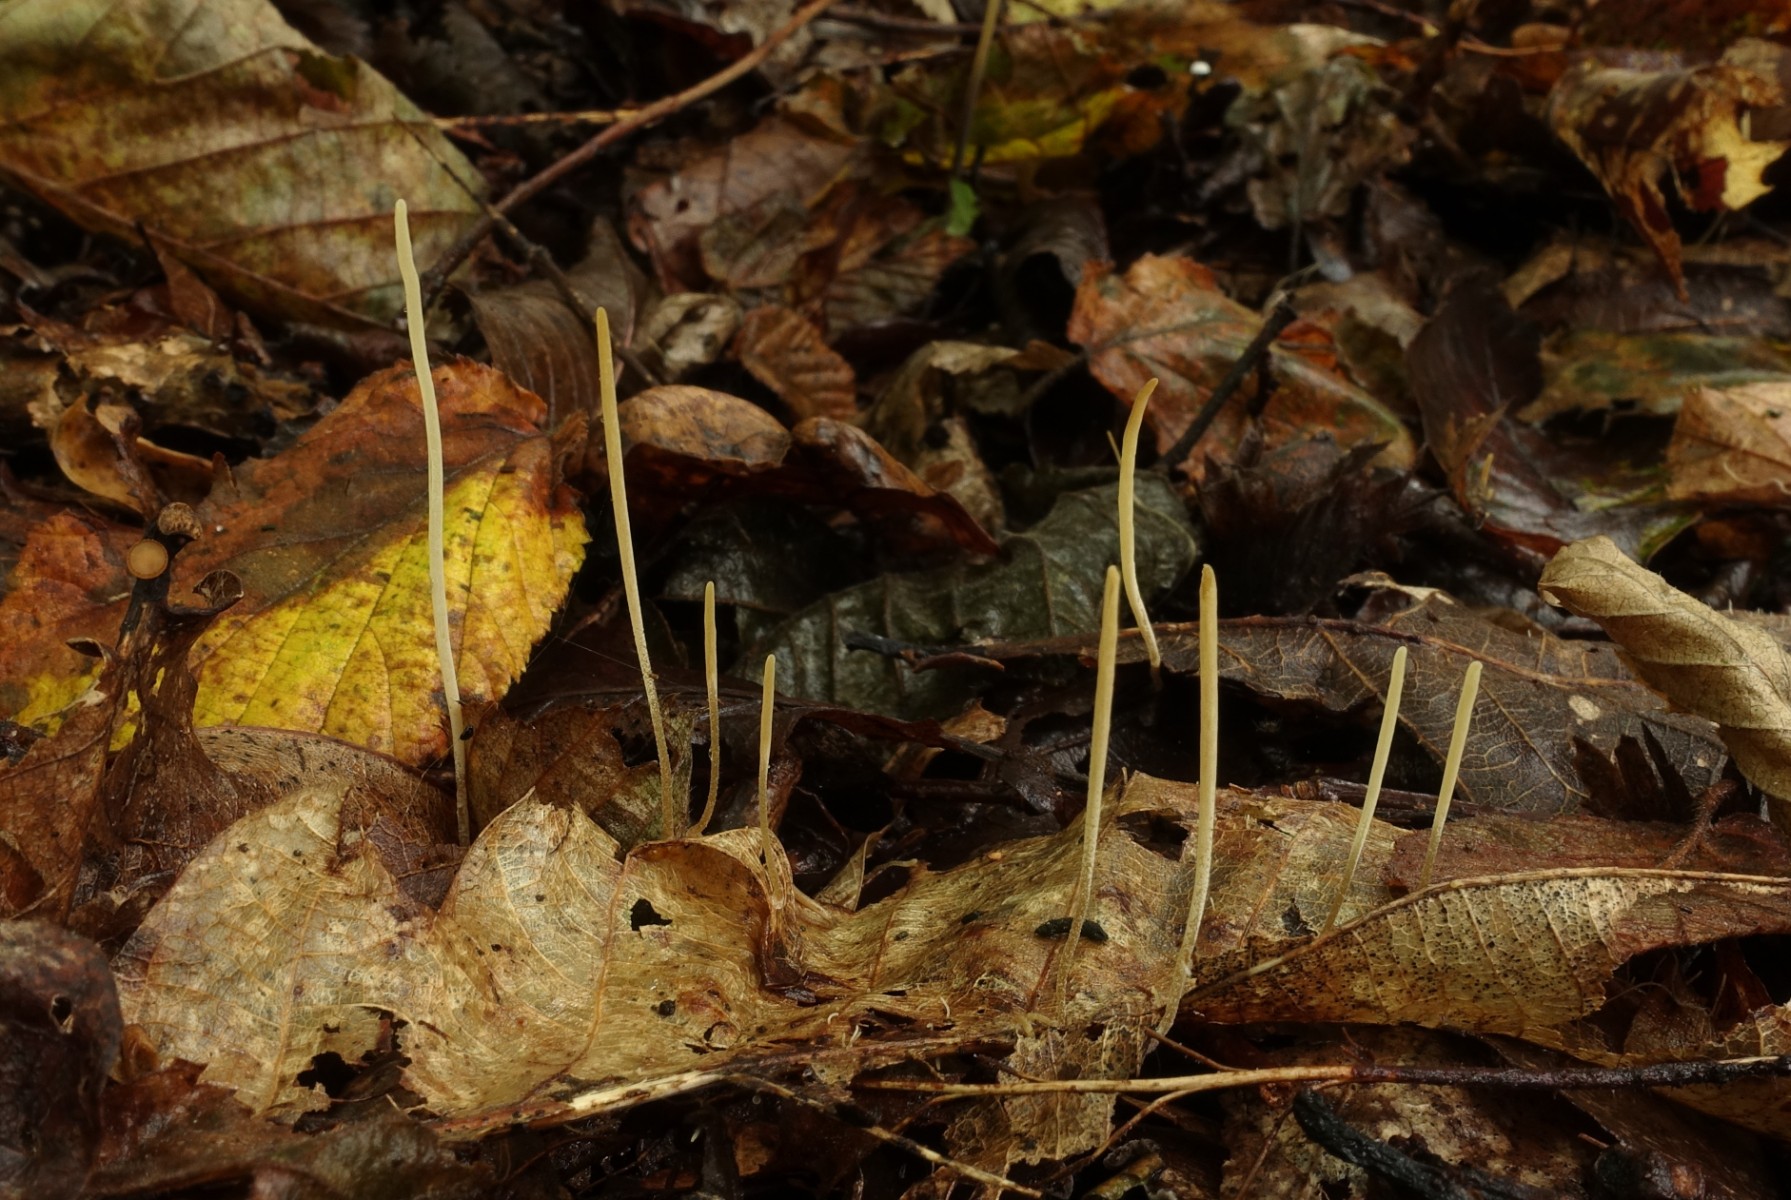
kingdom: Fungi
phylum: Basidiomycota
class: Agaricomycetes
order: Agaricales
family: Typhulaceae
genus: Macrotyphula
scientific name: Macrotyphula
